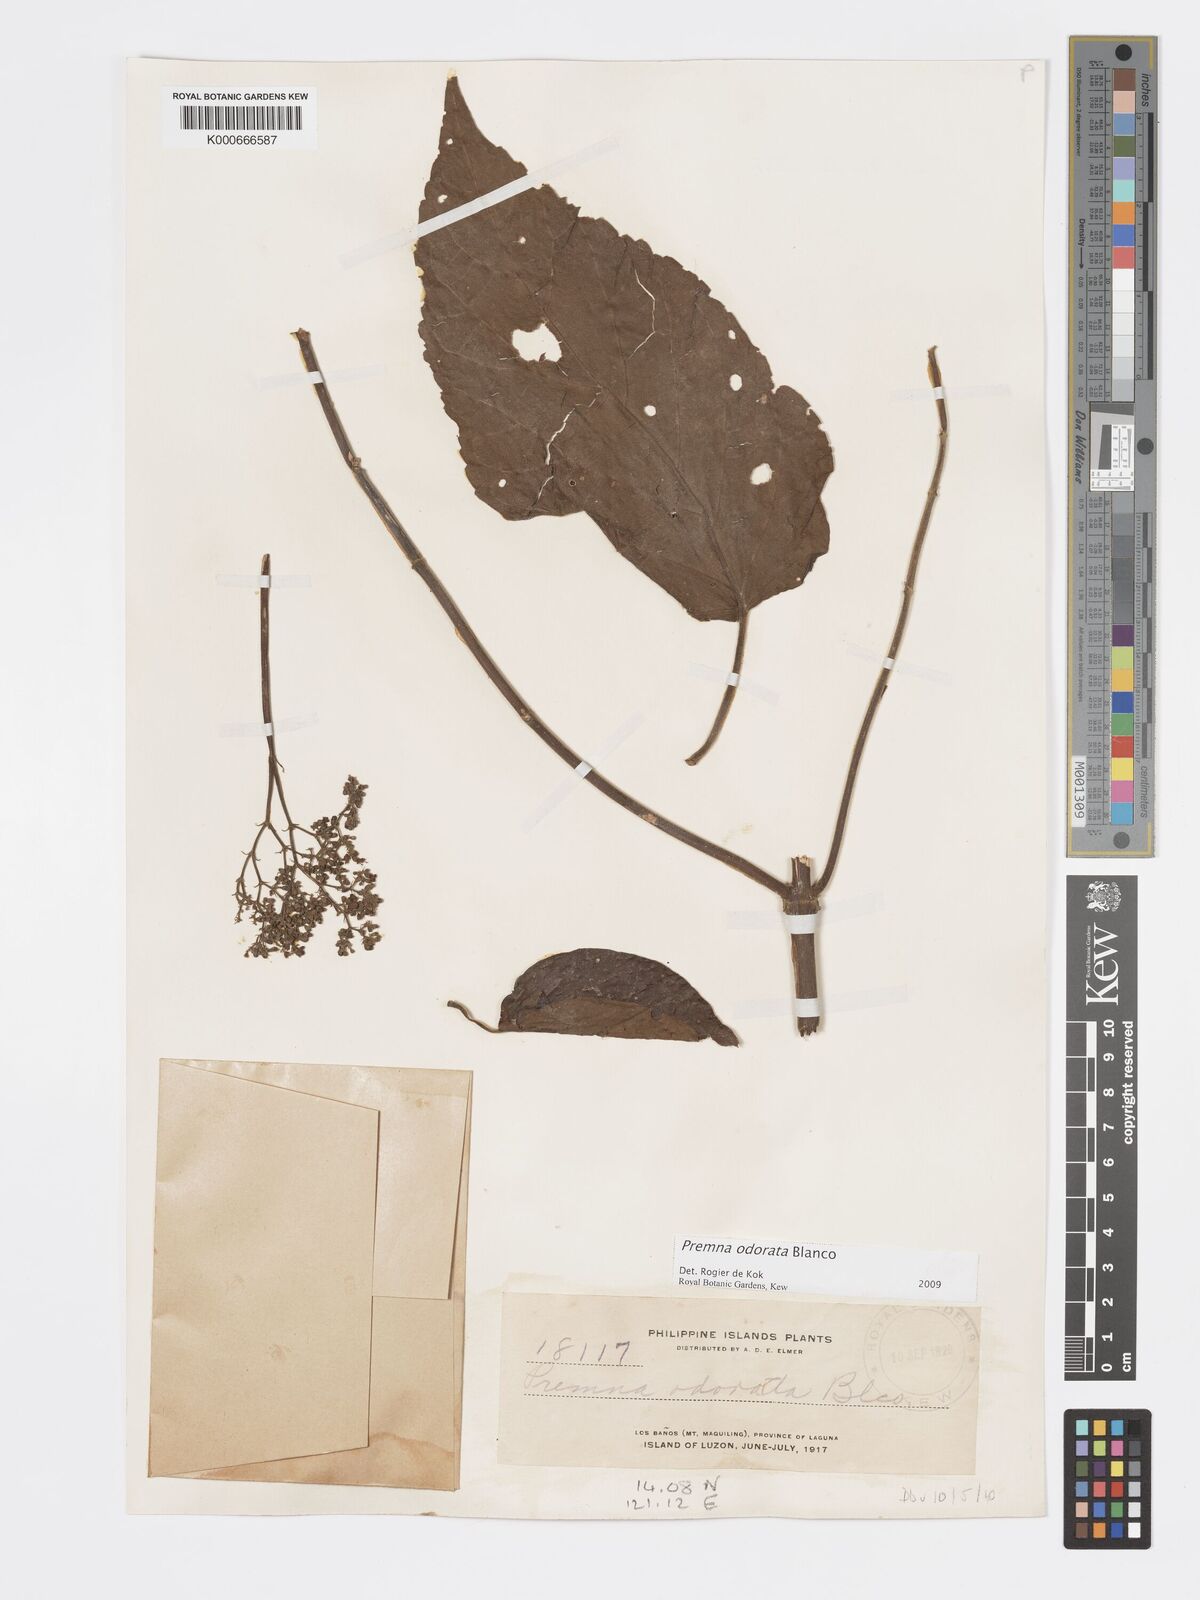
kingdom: Plantae
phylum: Tracheophyta
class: Magnoliopsida
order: Lamiales
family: Lamiaceae
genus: Premna
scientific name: Premna odorata
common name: Fragrant premna
